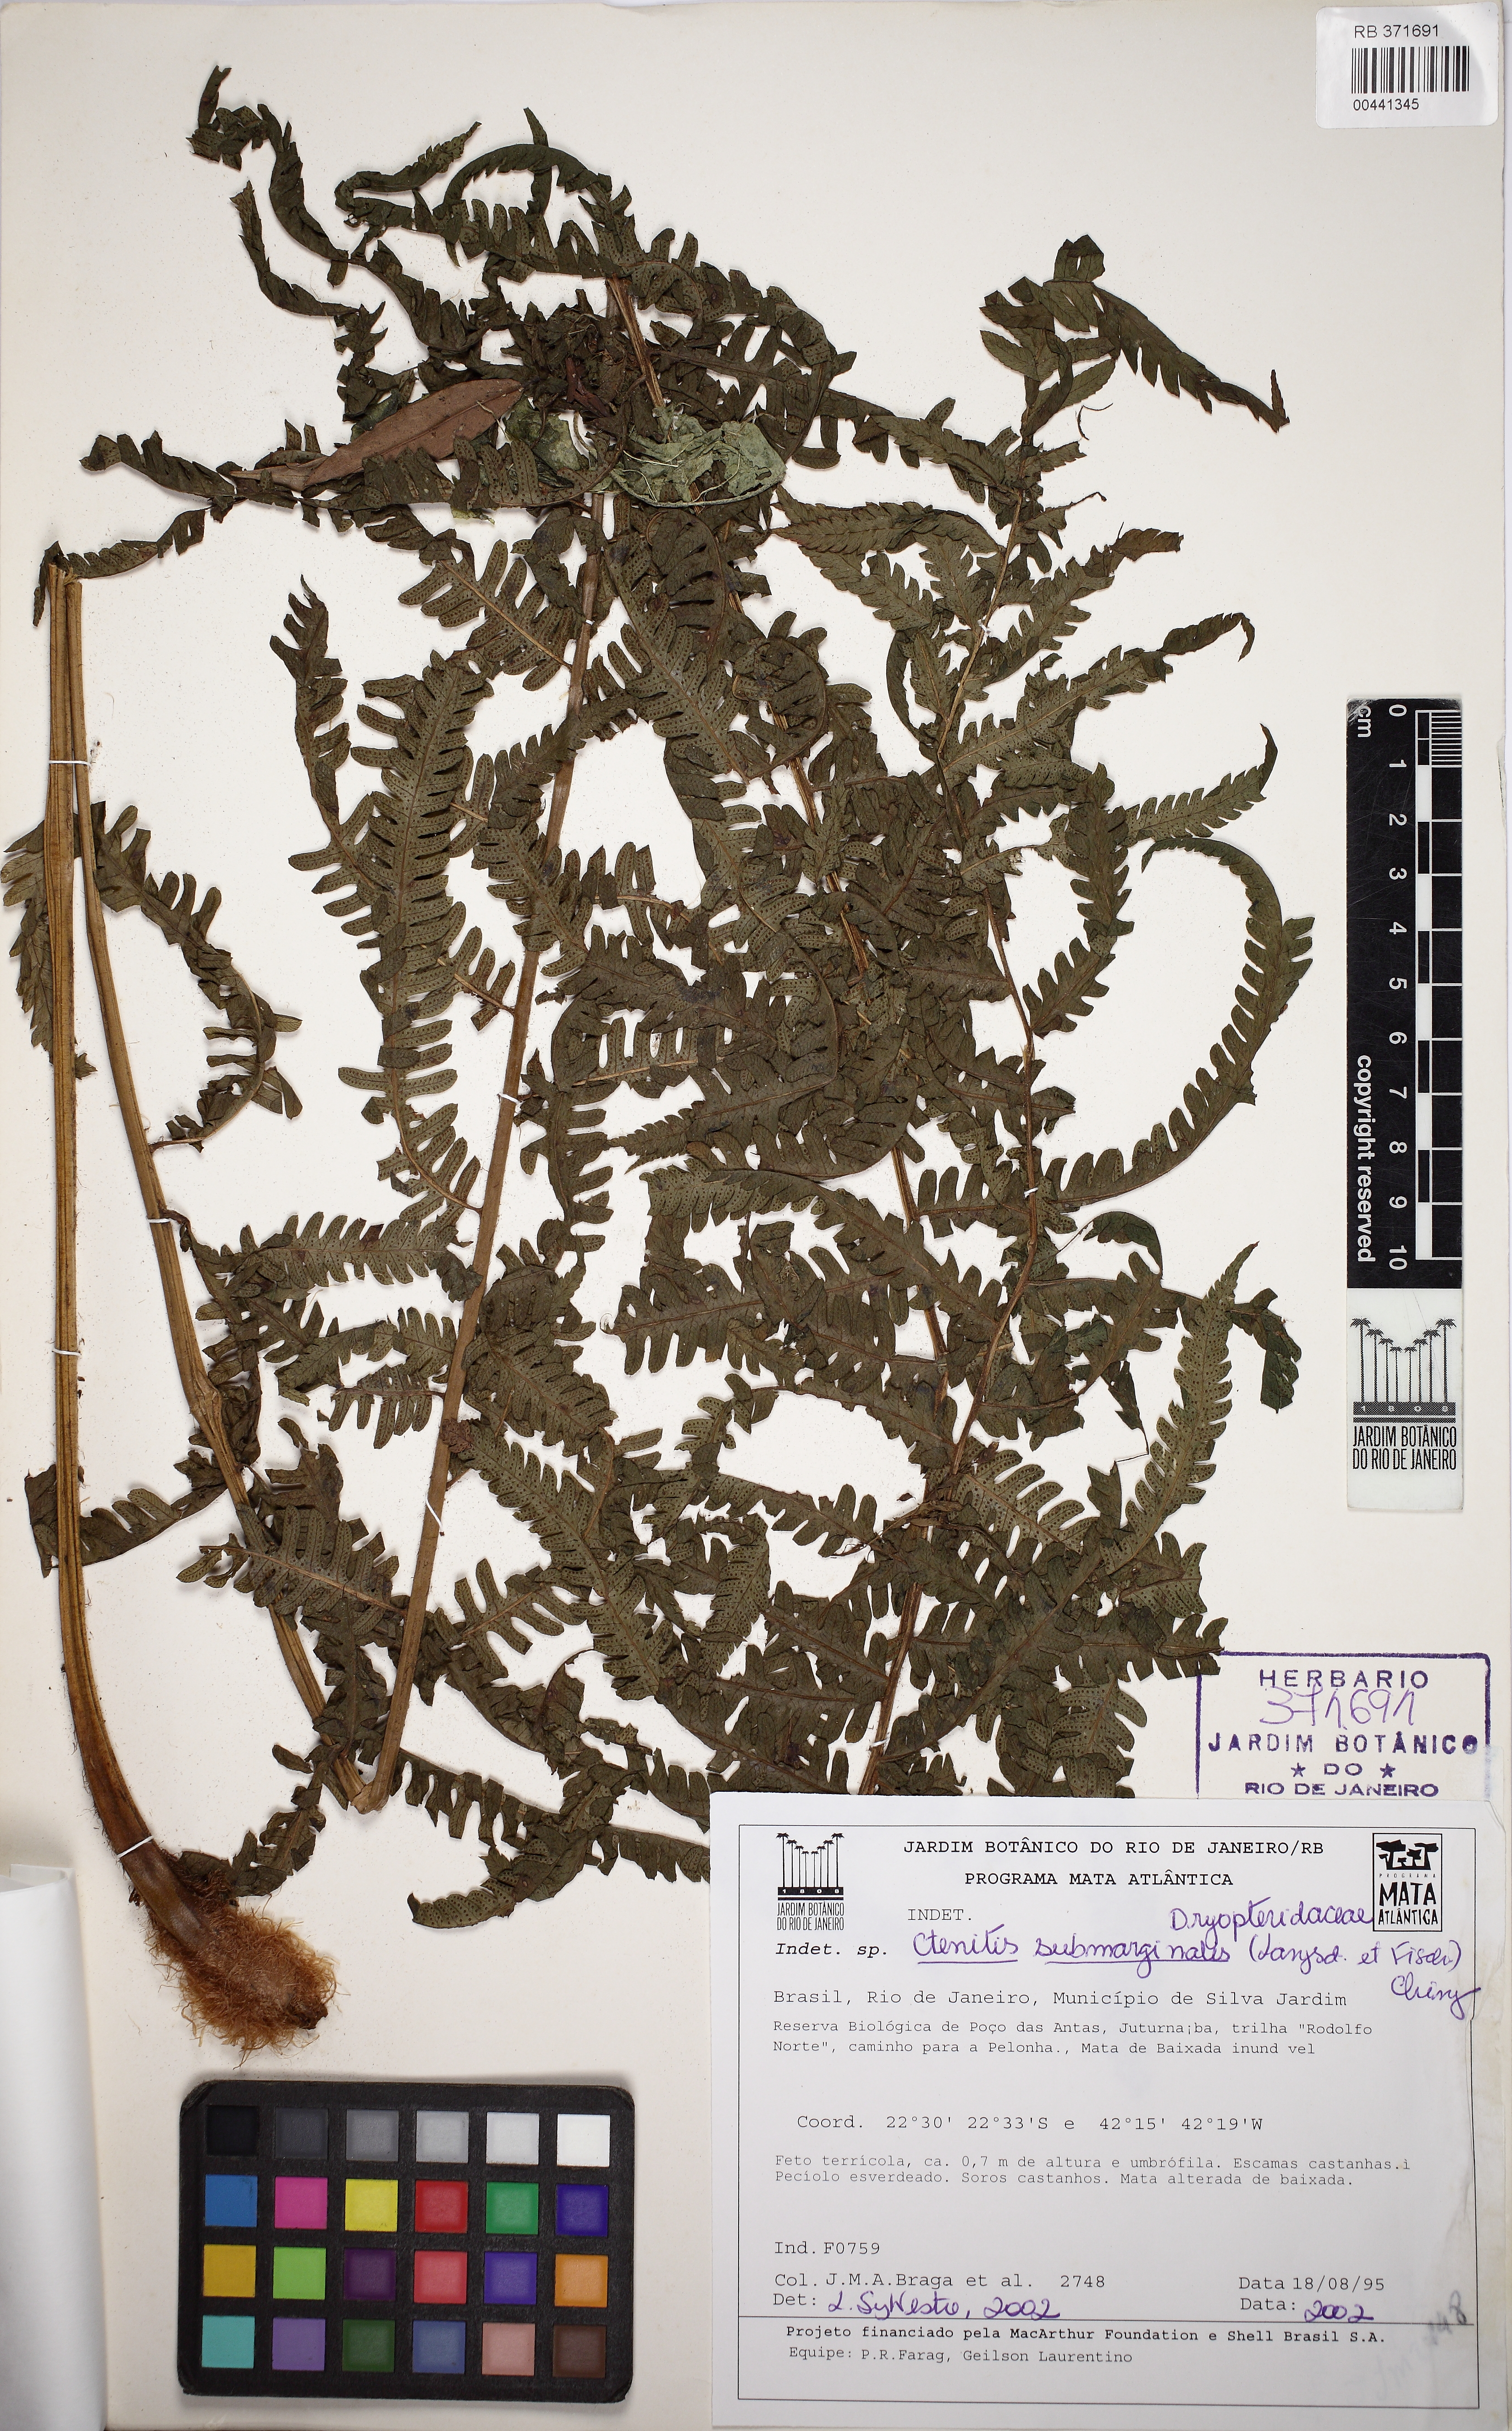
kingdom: Plantae
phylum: Tracheophyta
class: Polypodiopsida
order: Polypodiales
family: Dryopteridaceae
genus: Ctenitis
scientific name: Ctenitis submarginalis
